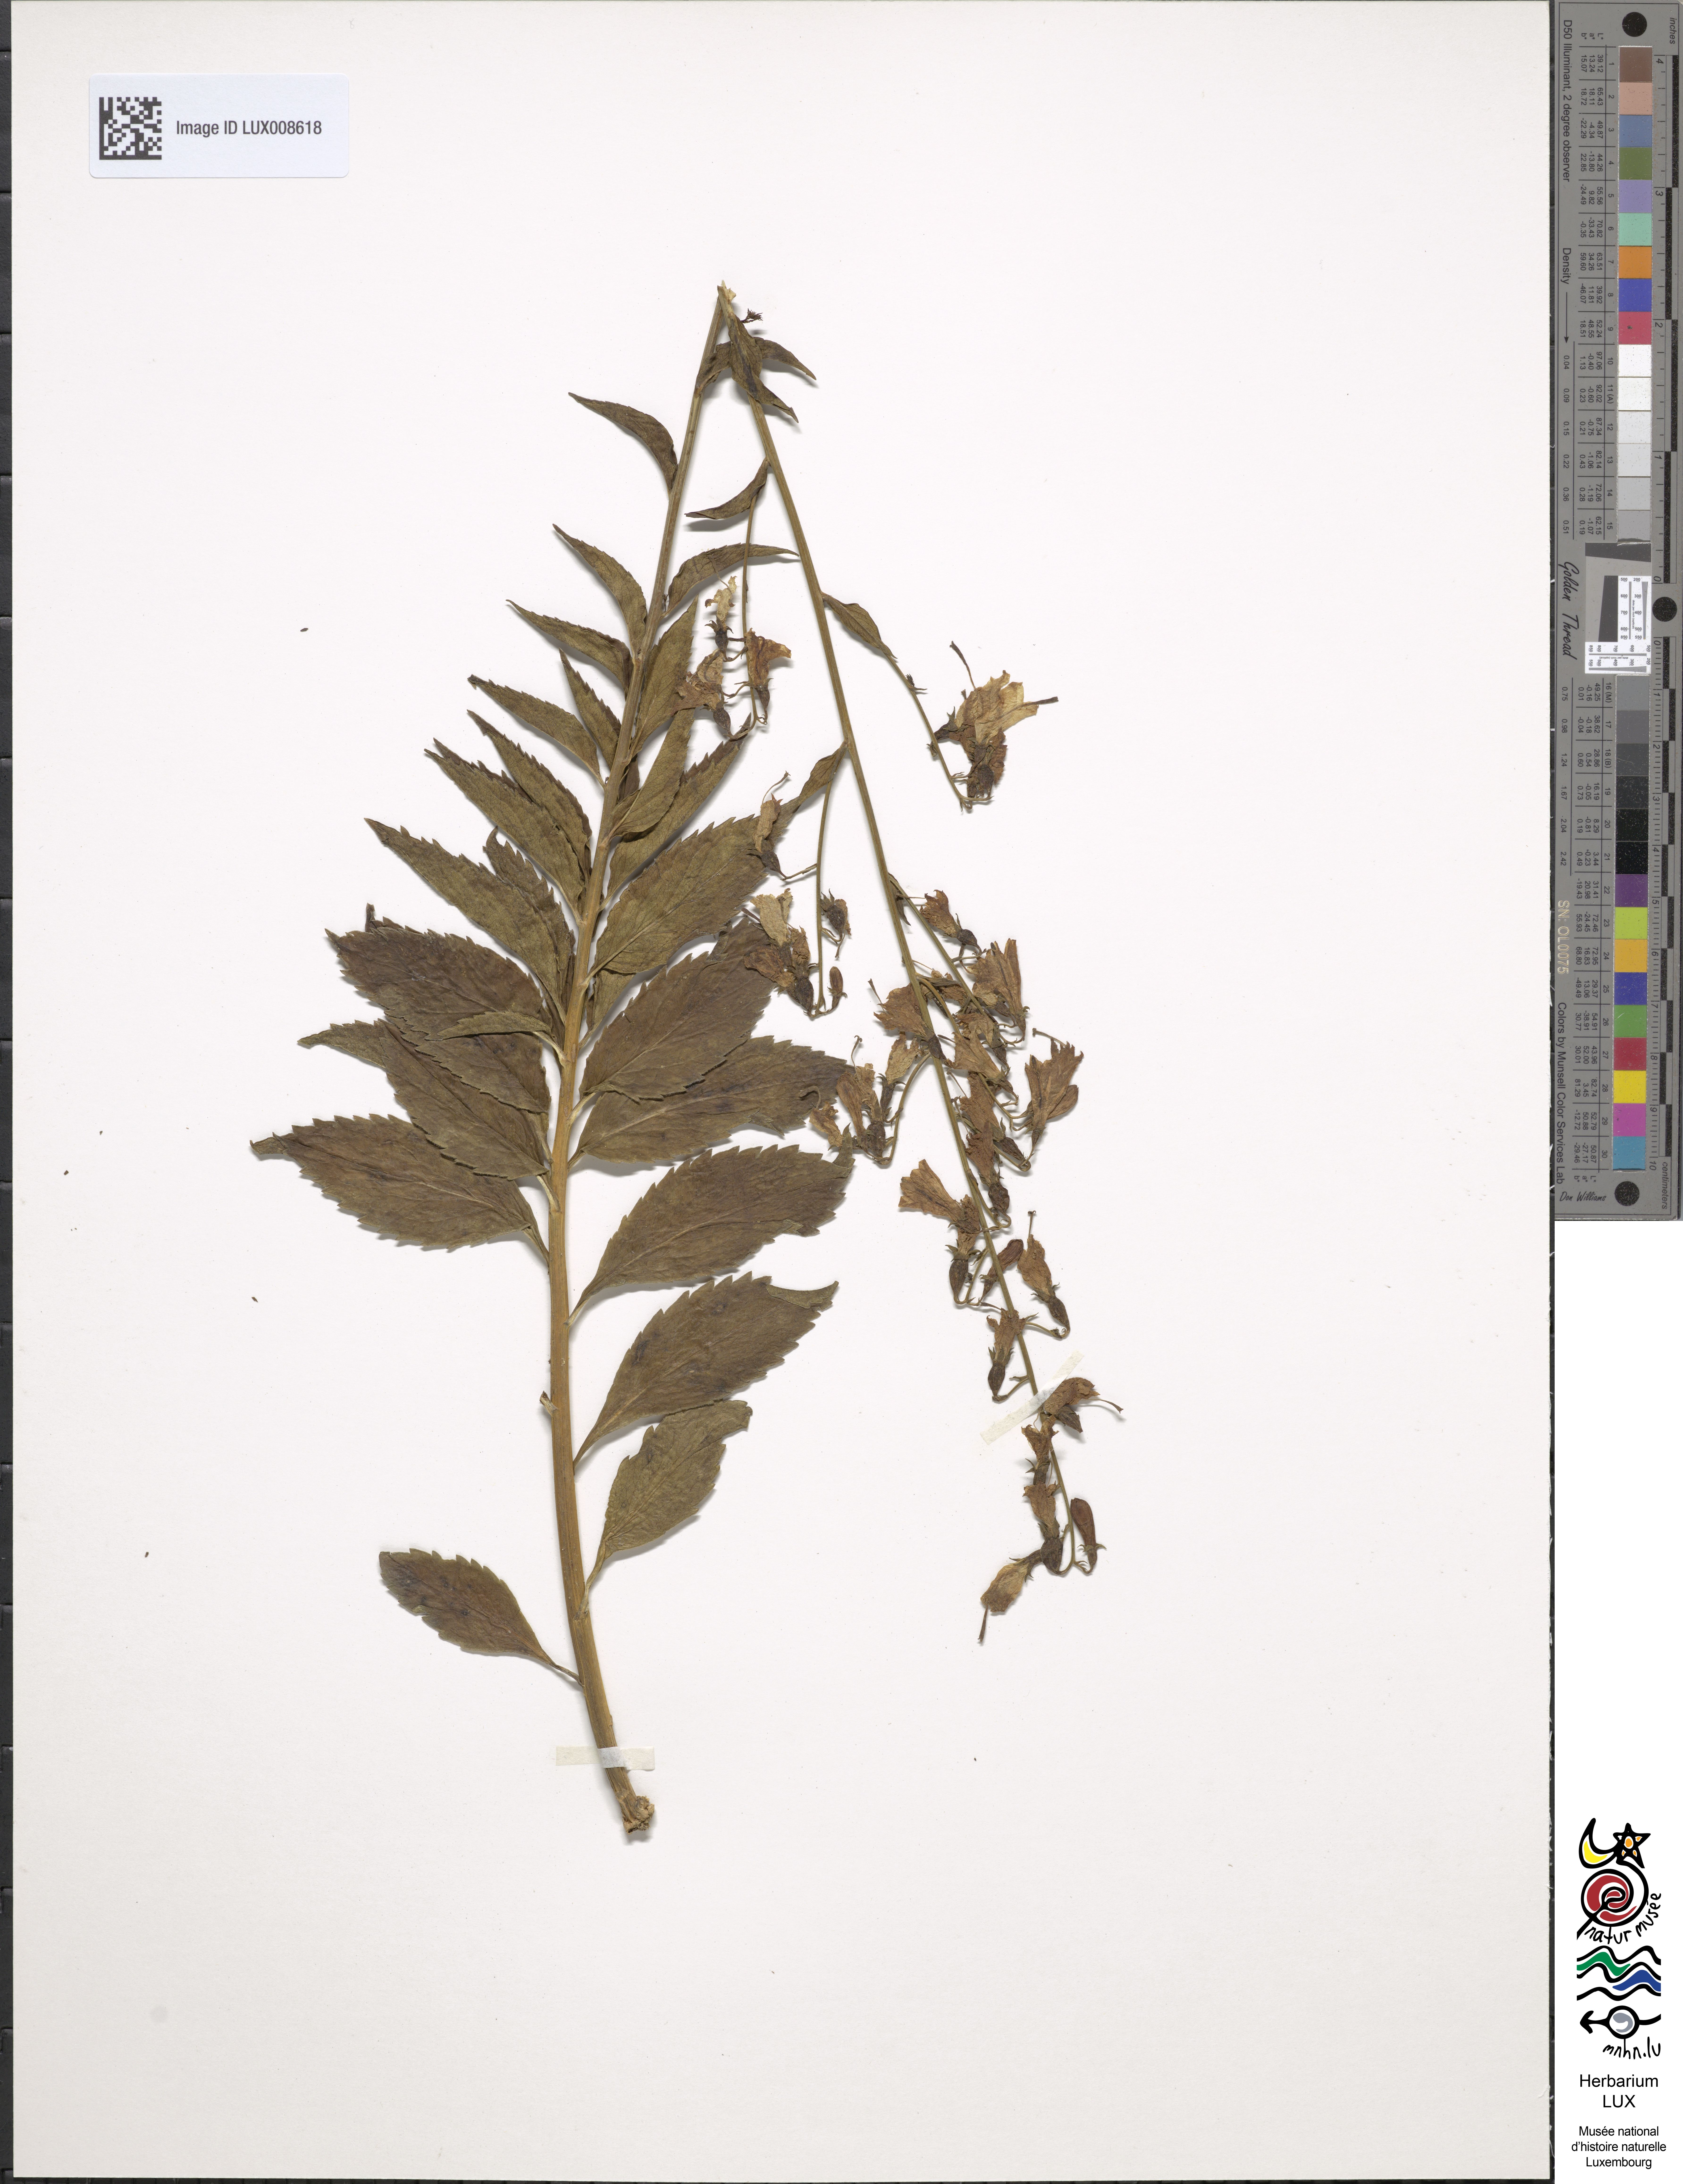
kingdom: Plantae
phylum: Tracheophyta
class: Magnoliopsida
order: Asterales
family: Campanulaceae
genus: Adenophora
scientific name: Adenophora liliifolia
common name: Lilyleaf ladybells
